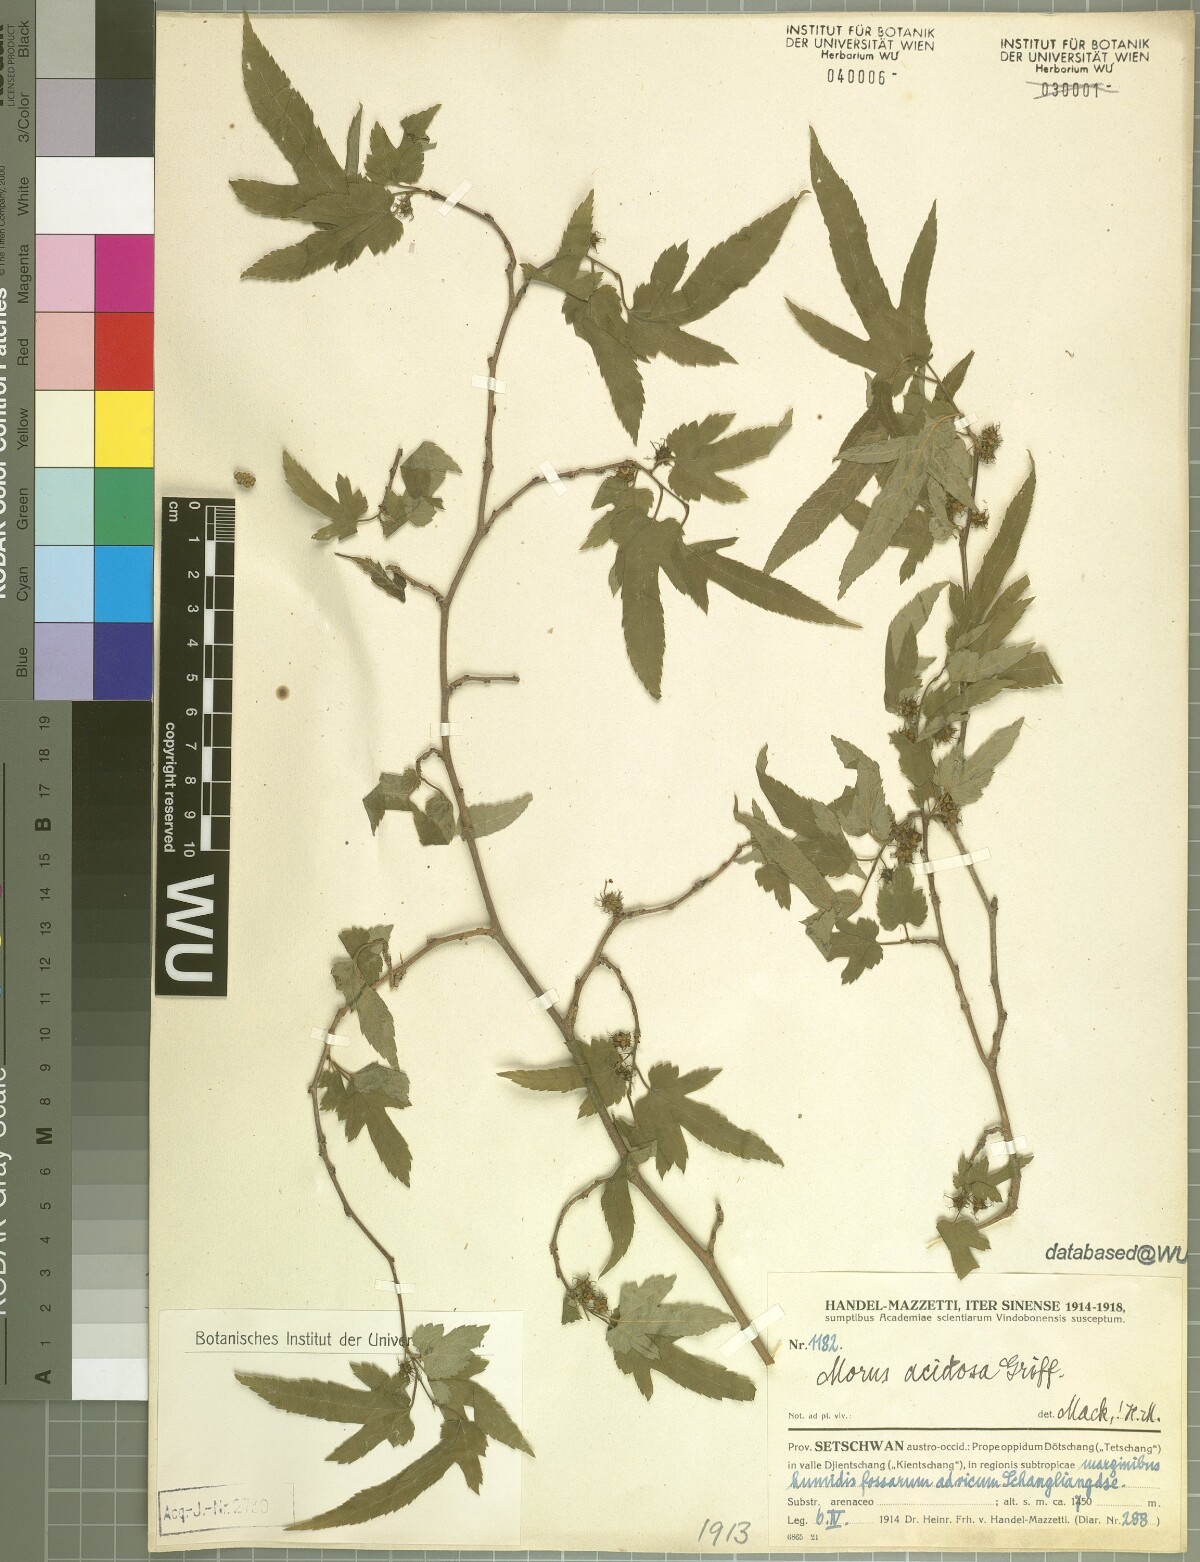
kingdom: Plantae
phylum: Tracheophyta
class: Magnoliopsida
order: Rosales
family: Moraceae
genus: Broussonetia
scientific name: Broussonetia papyrifera
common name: Paper mulberry
